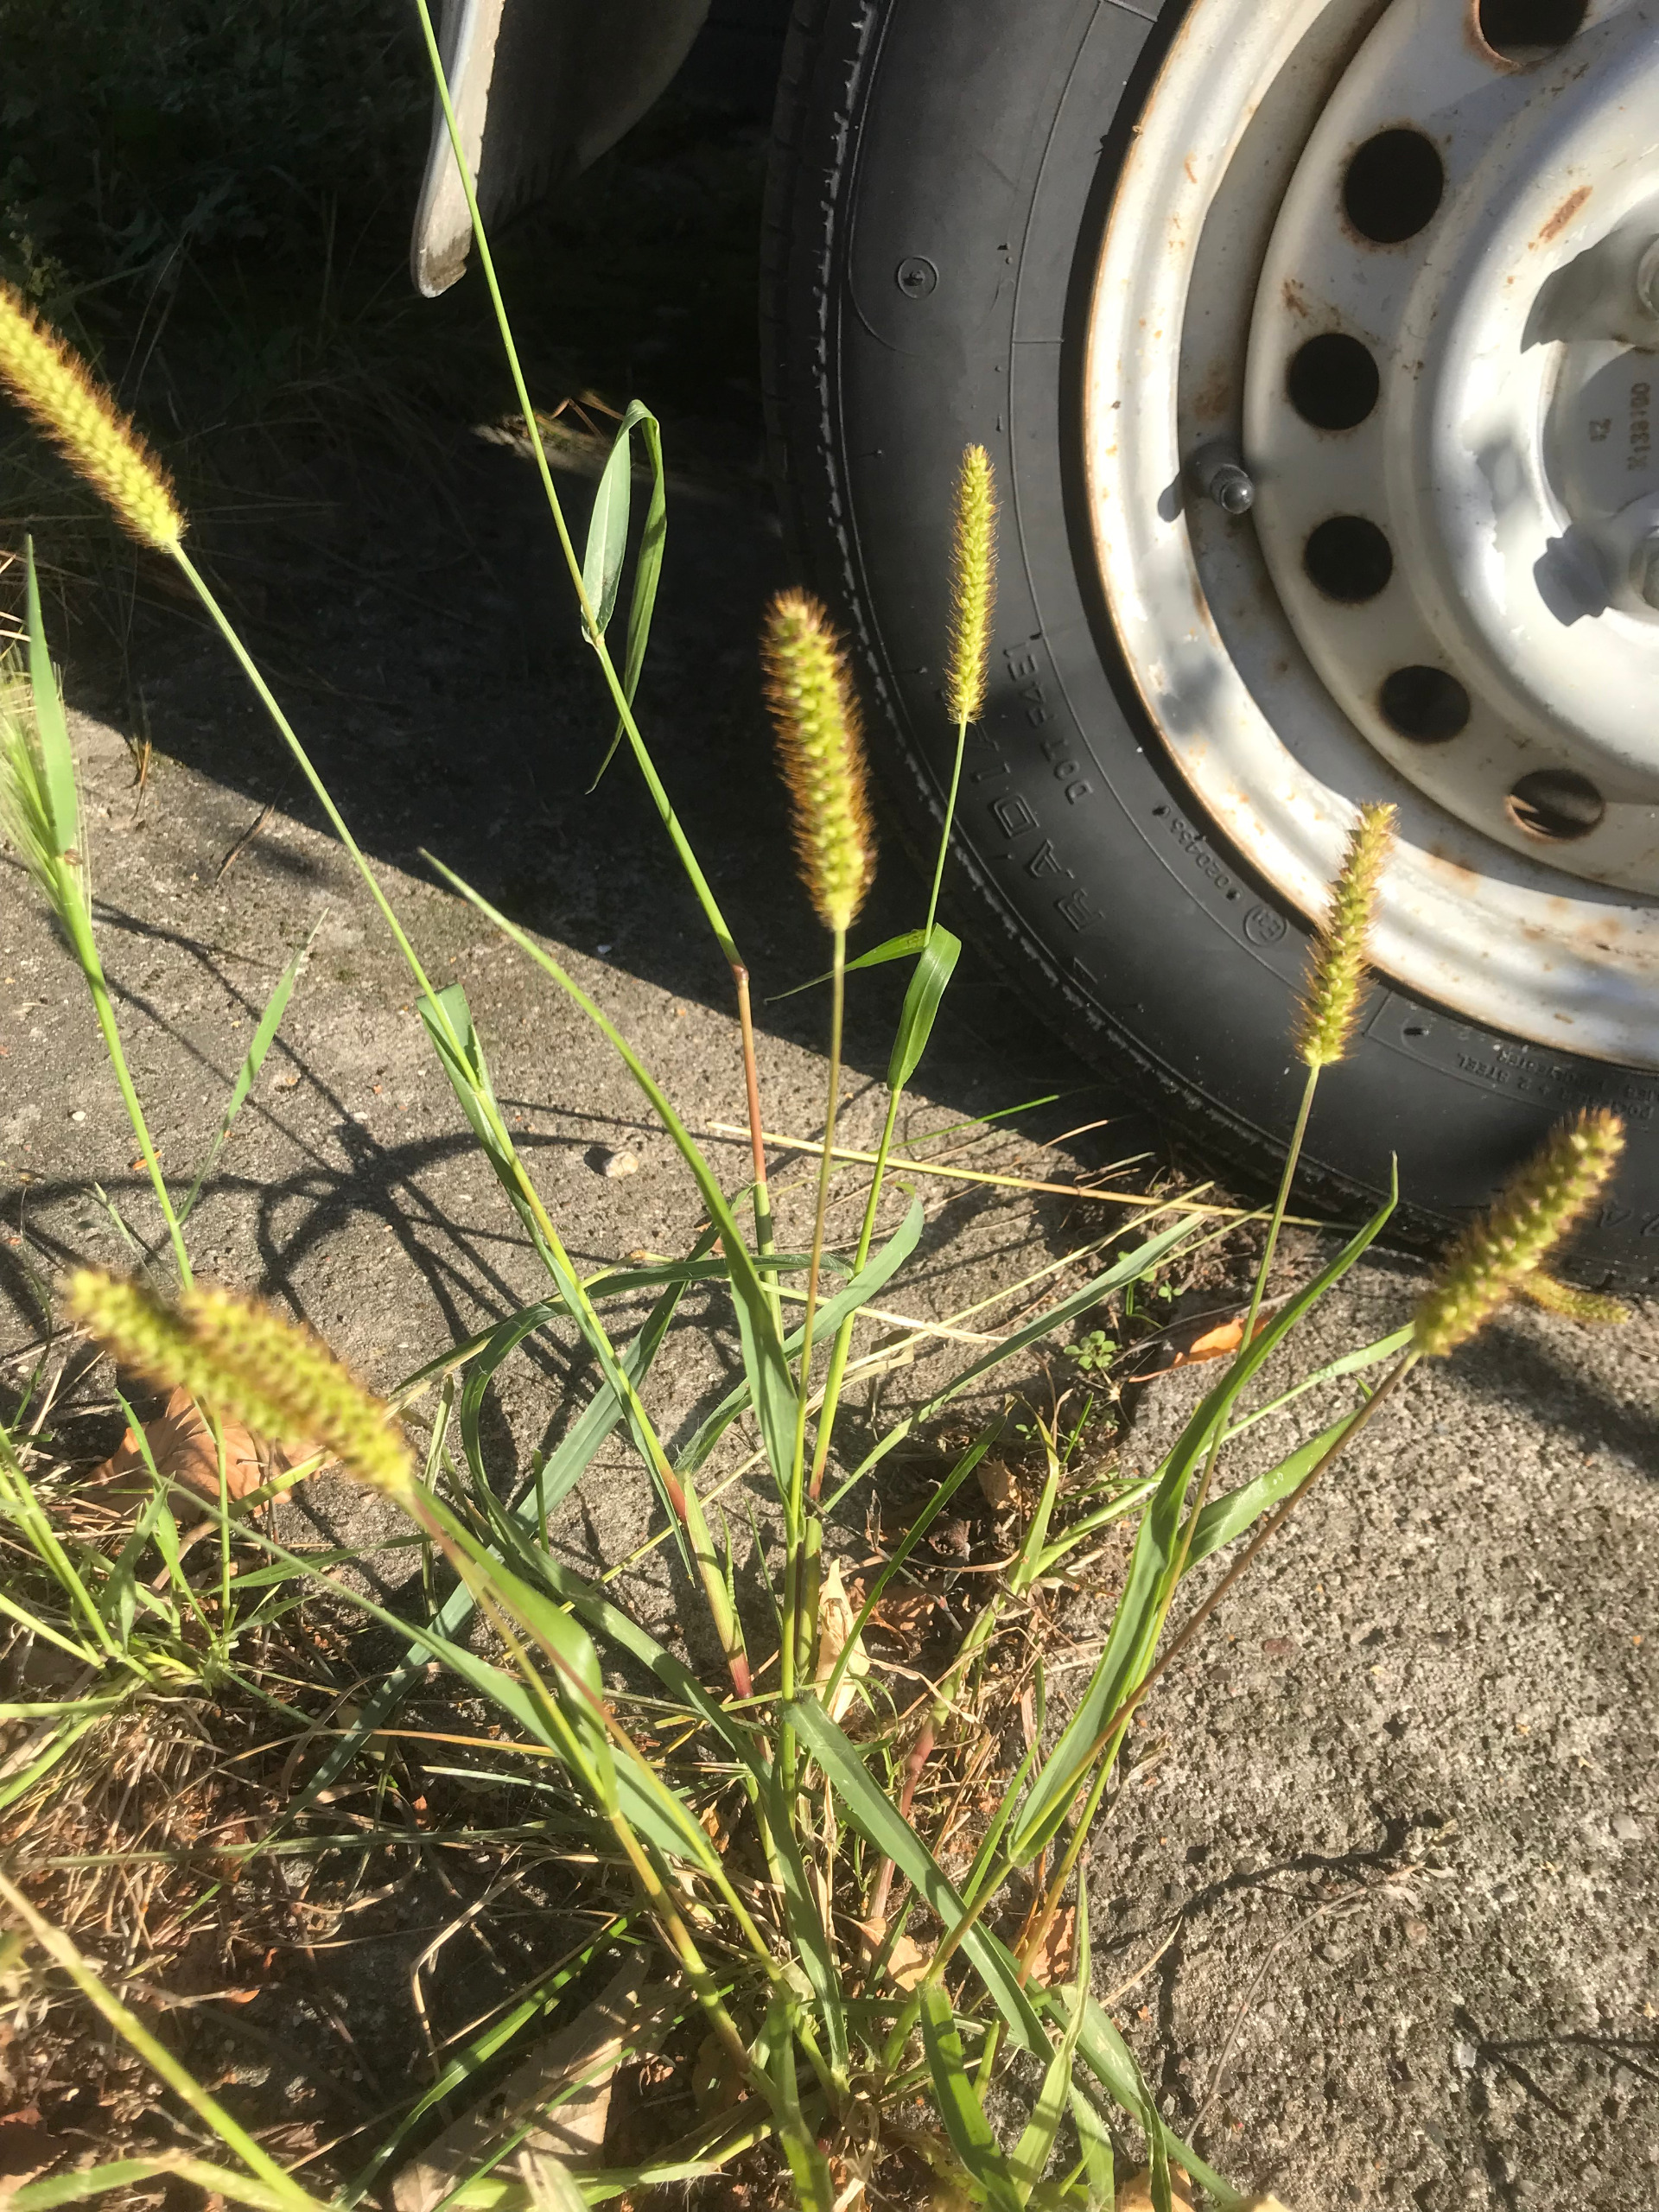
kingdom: Plantae
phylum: Tracheophyta
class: Liliopsida
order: Poales
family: Poaceae
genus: Setaria
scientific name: Setaria pumila
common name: Blågrøn skærmaks
